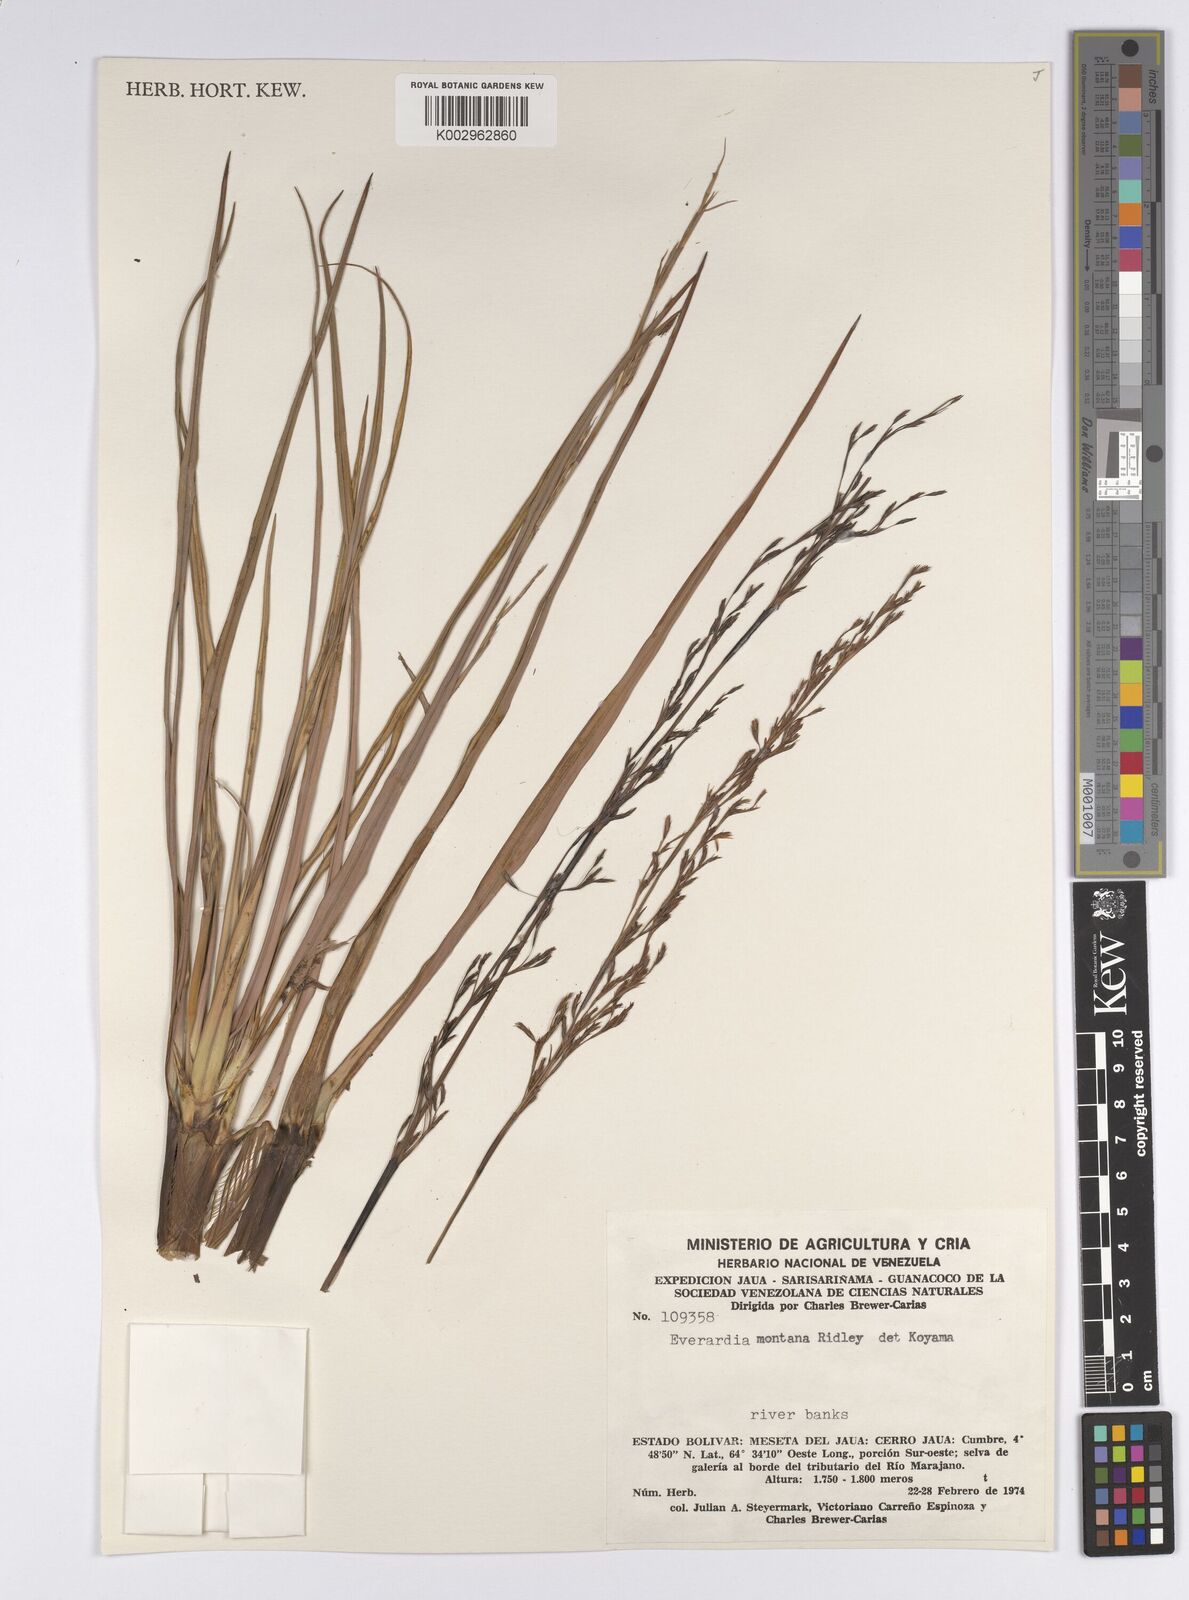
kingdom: Plantae
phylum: Tracheophyta
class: Liliopsida
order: Poales
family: Cyperaceae
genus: Cephalocarpus
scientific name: Cephalocarpus montanus
